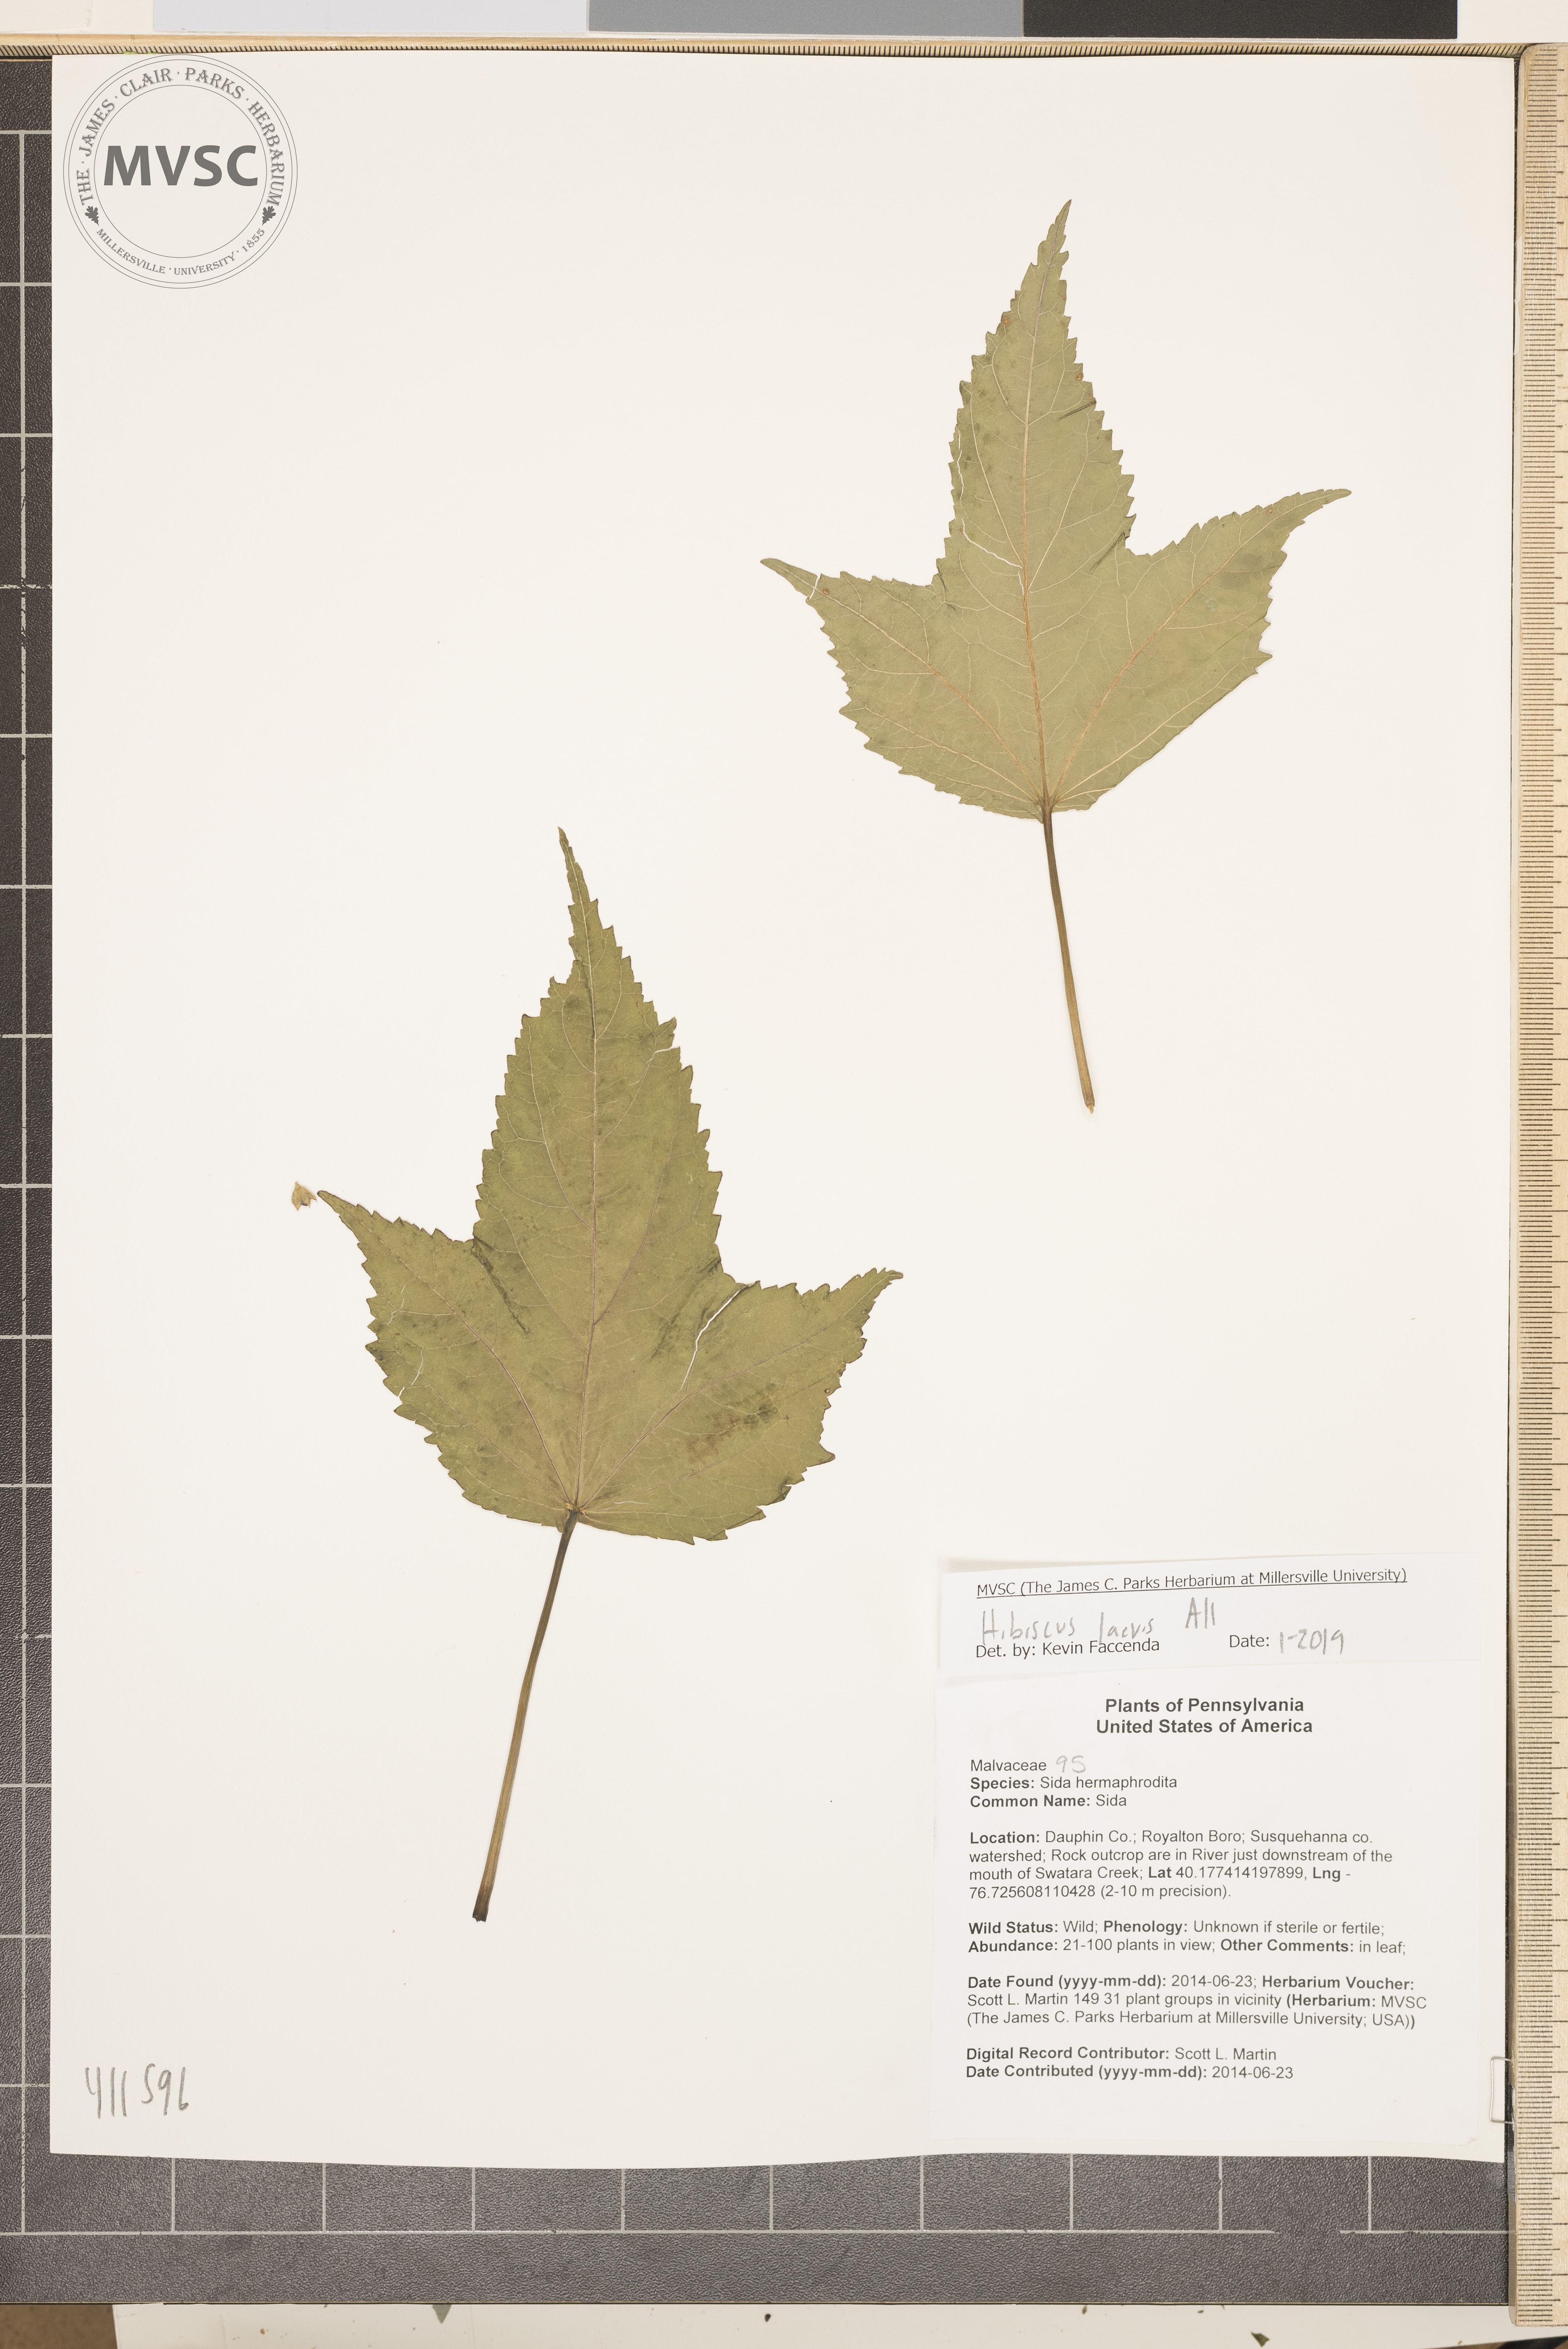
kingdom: Plantae
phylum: Tracheophyta
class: Magnoliopsida
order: Malvales
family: Malvaceae
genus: Hibiscus
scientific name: Hibiscus laevis
